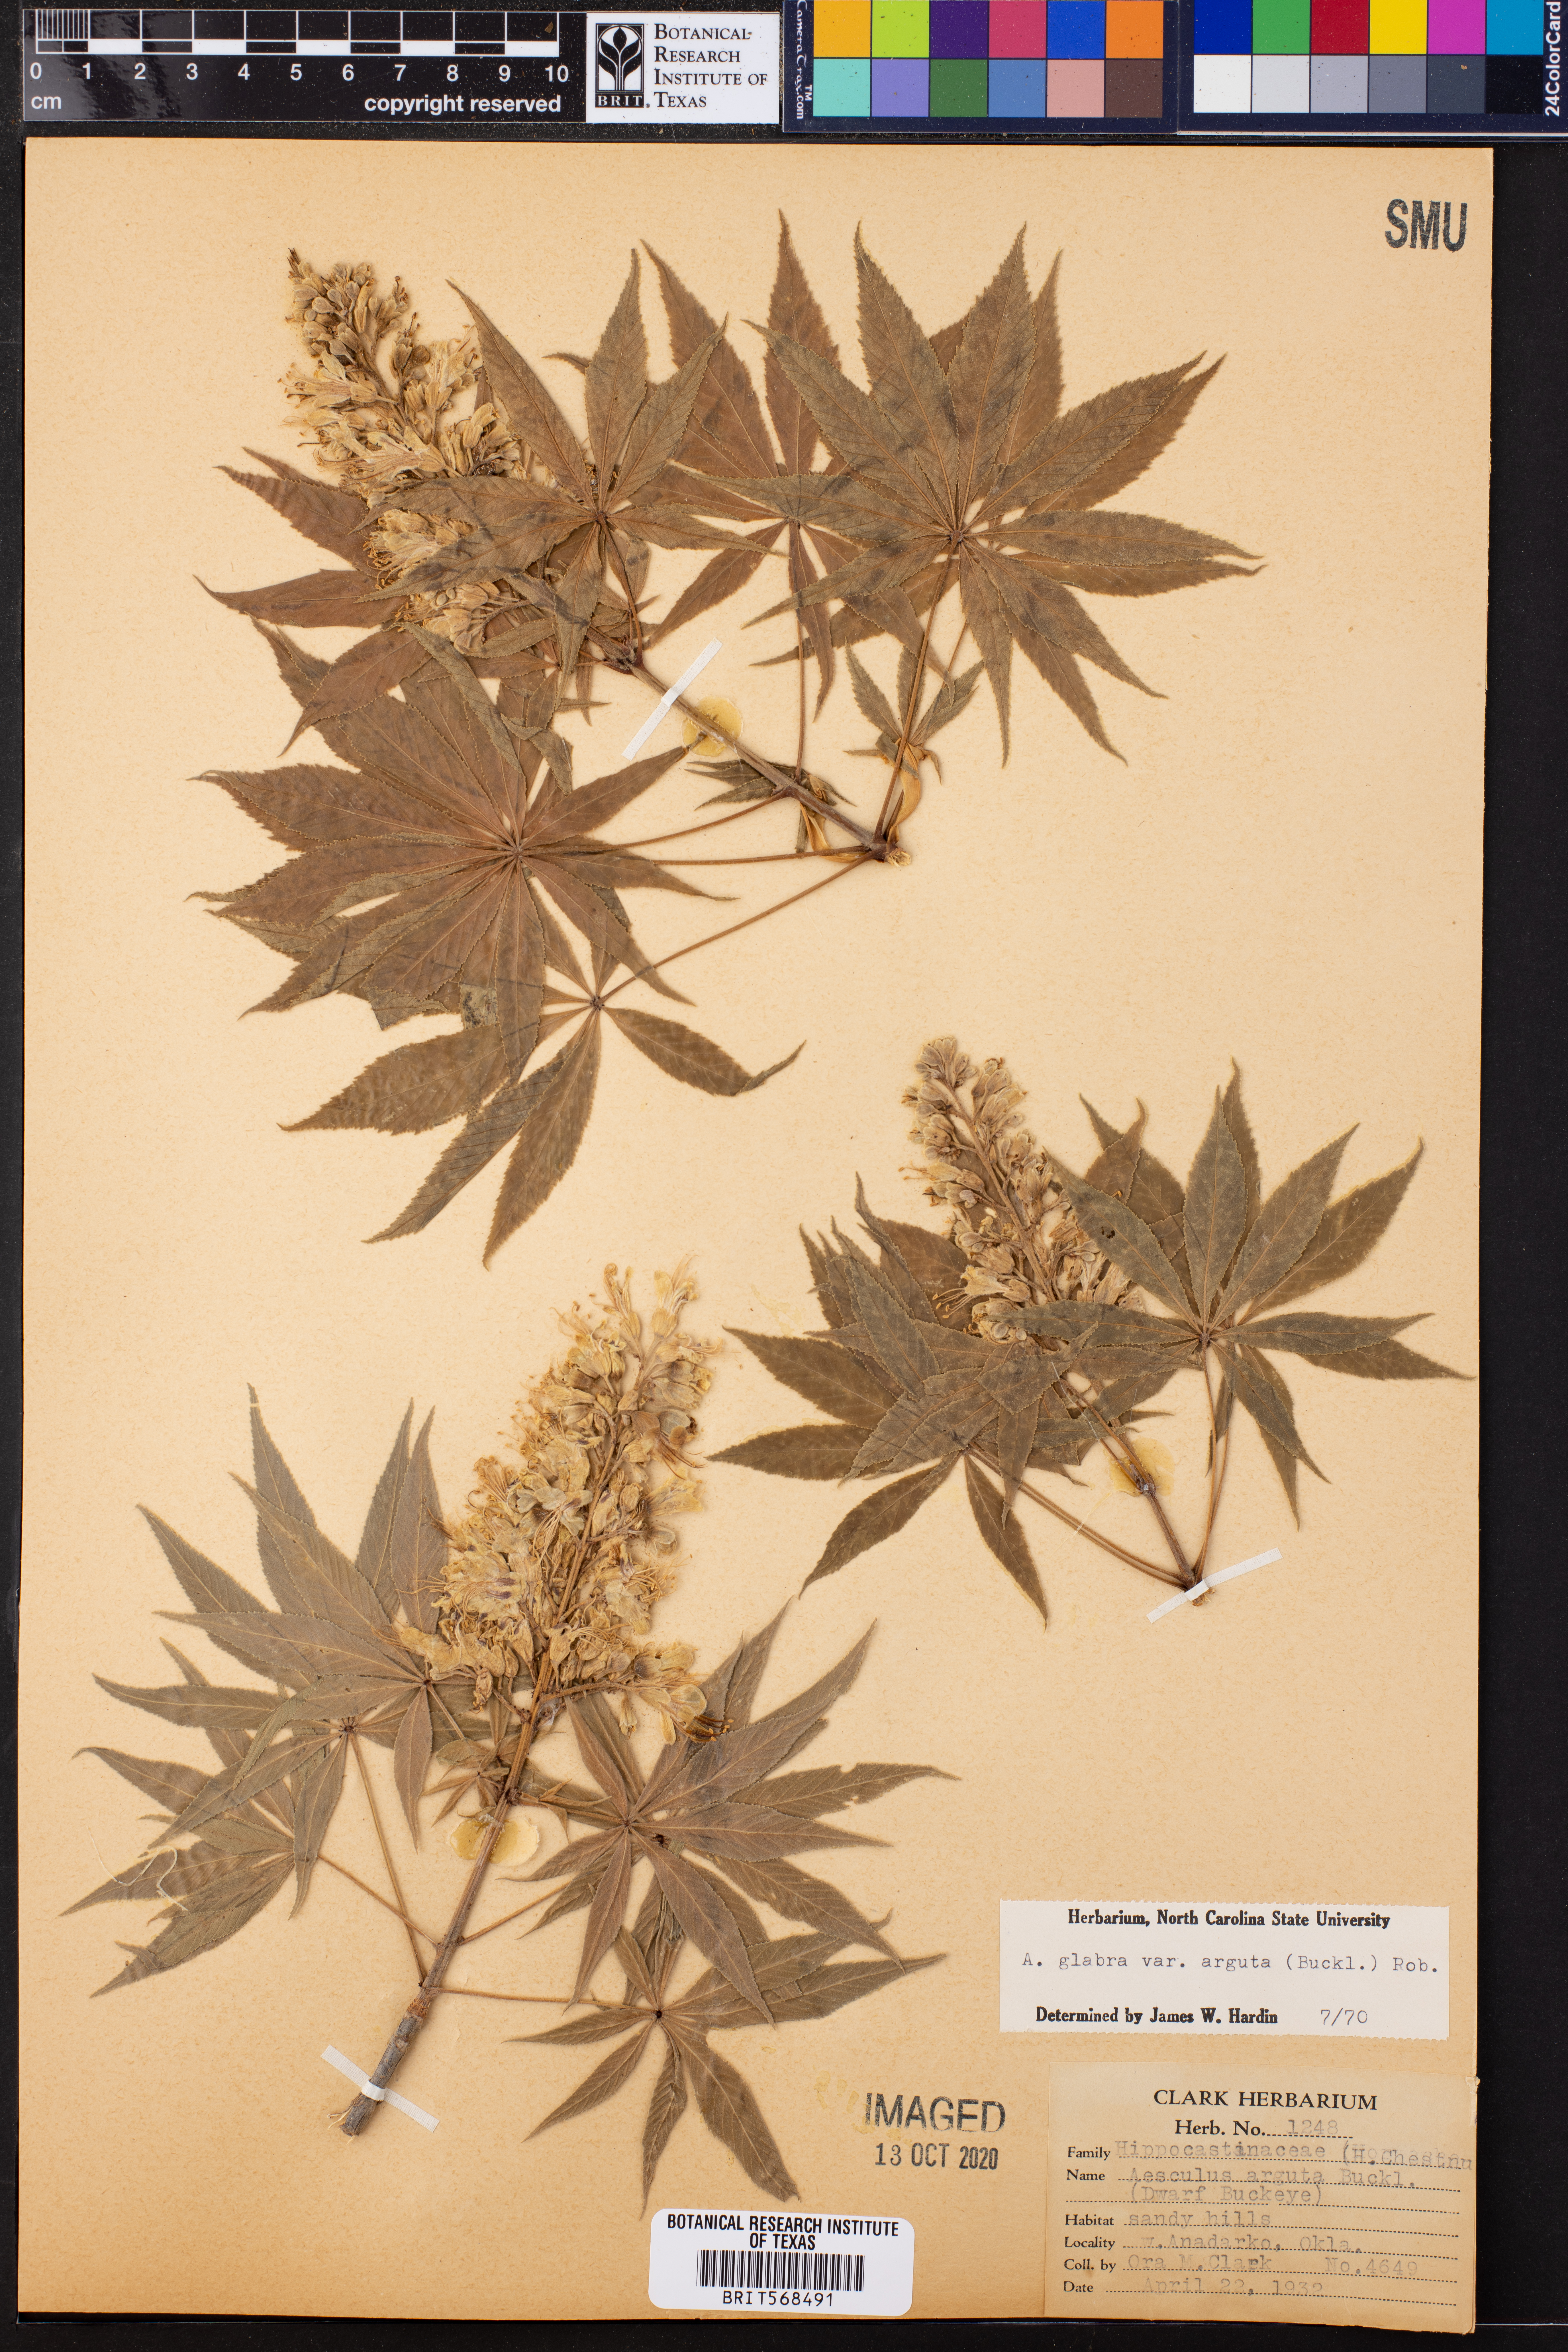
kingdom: Plantae
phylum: Tracheophyta
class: Magnoliopsida
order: Sapindales
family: Sapindaceae
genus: Aesculus
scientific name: Aesculus glabra
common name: Ohio buckeye
